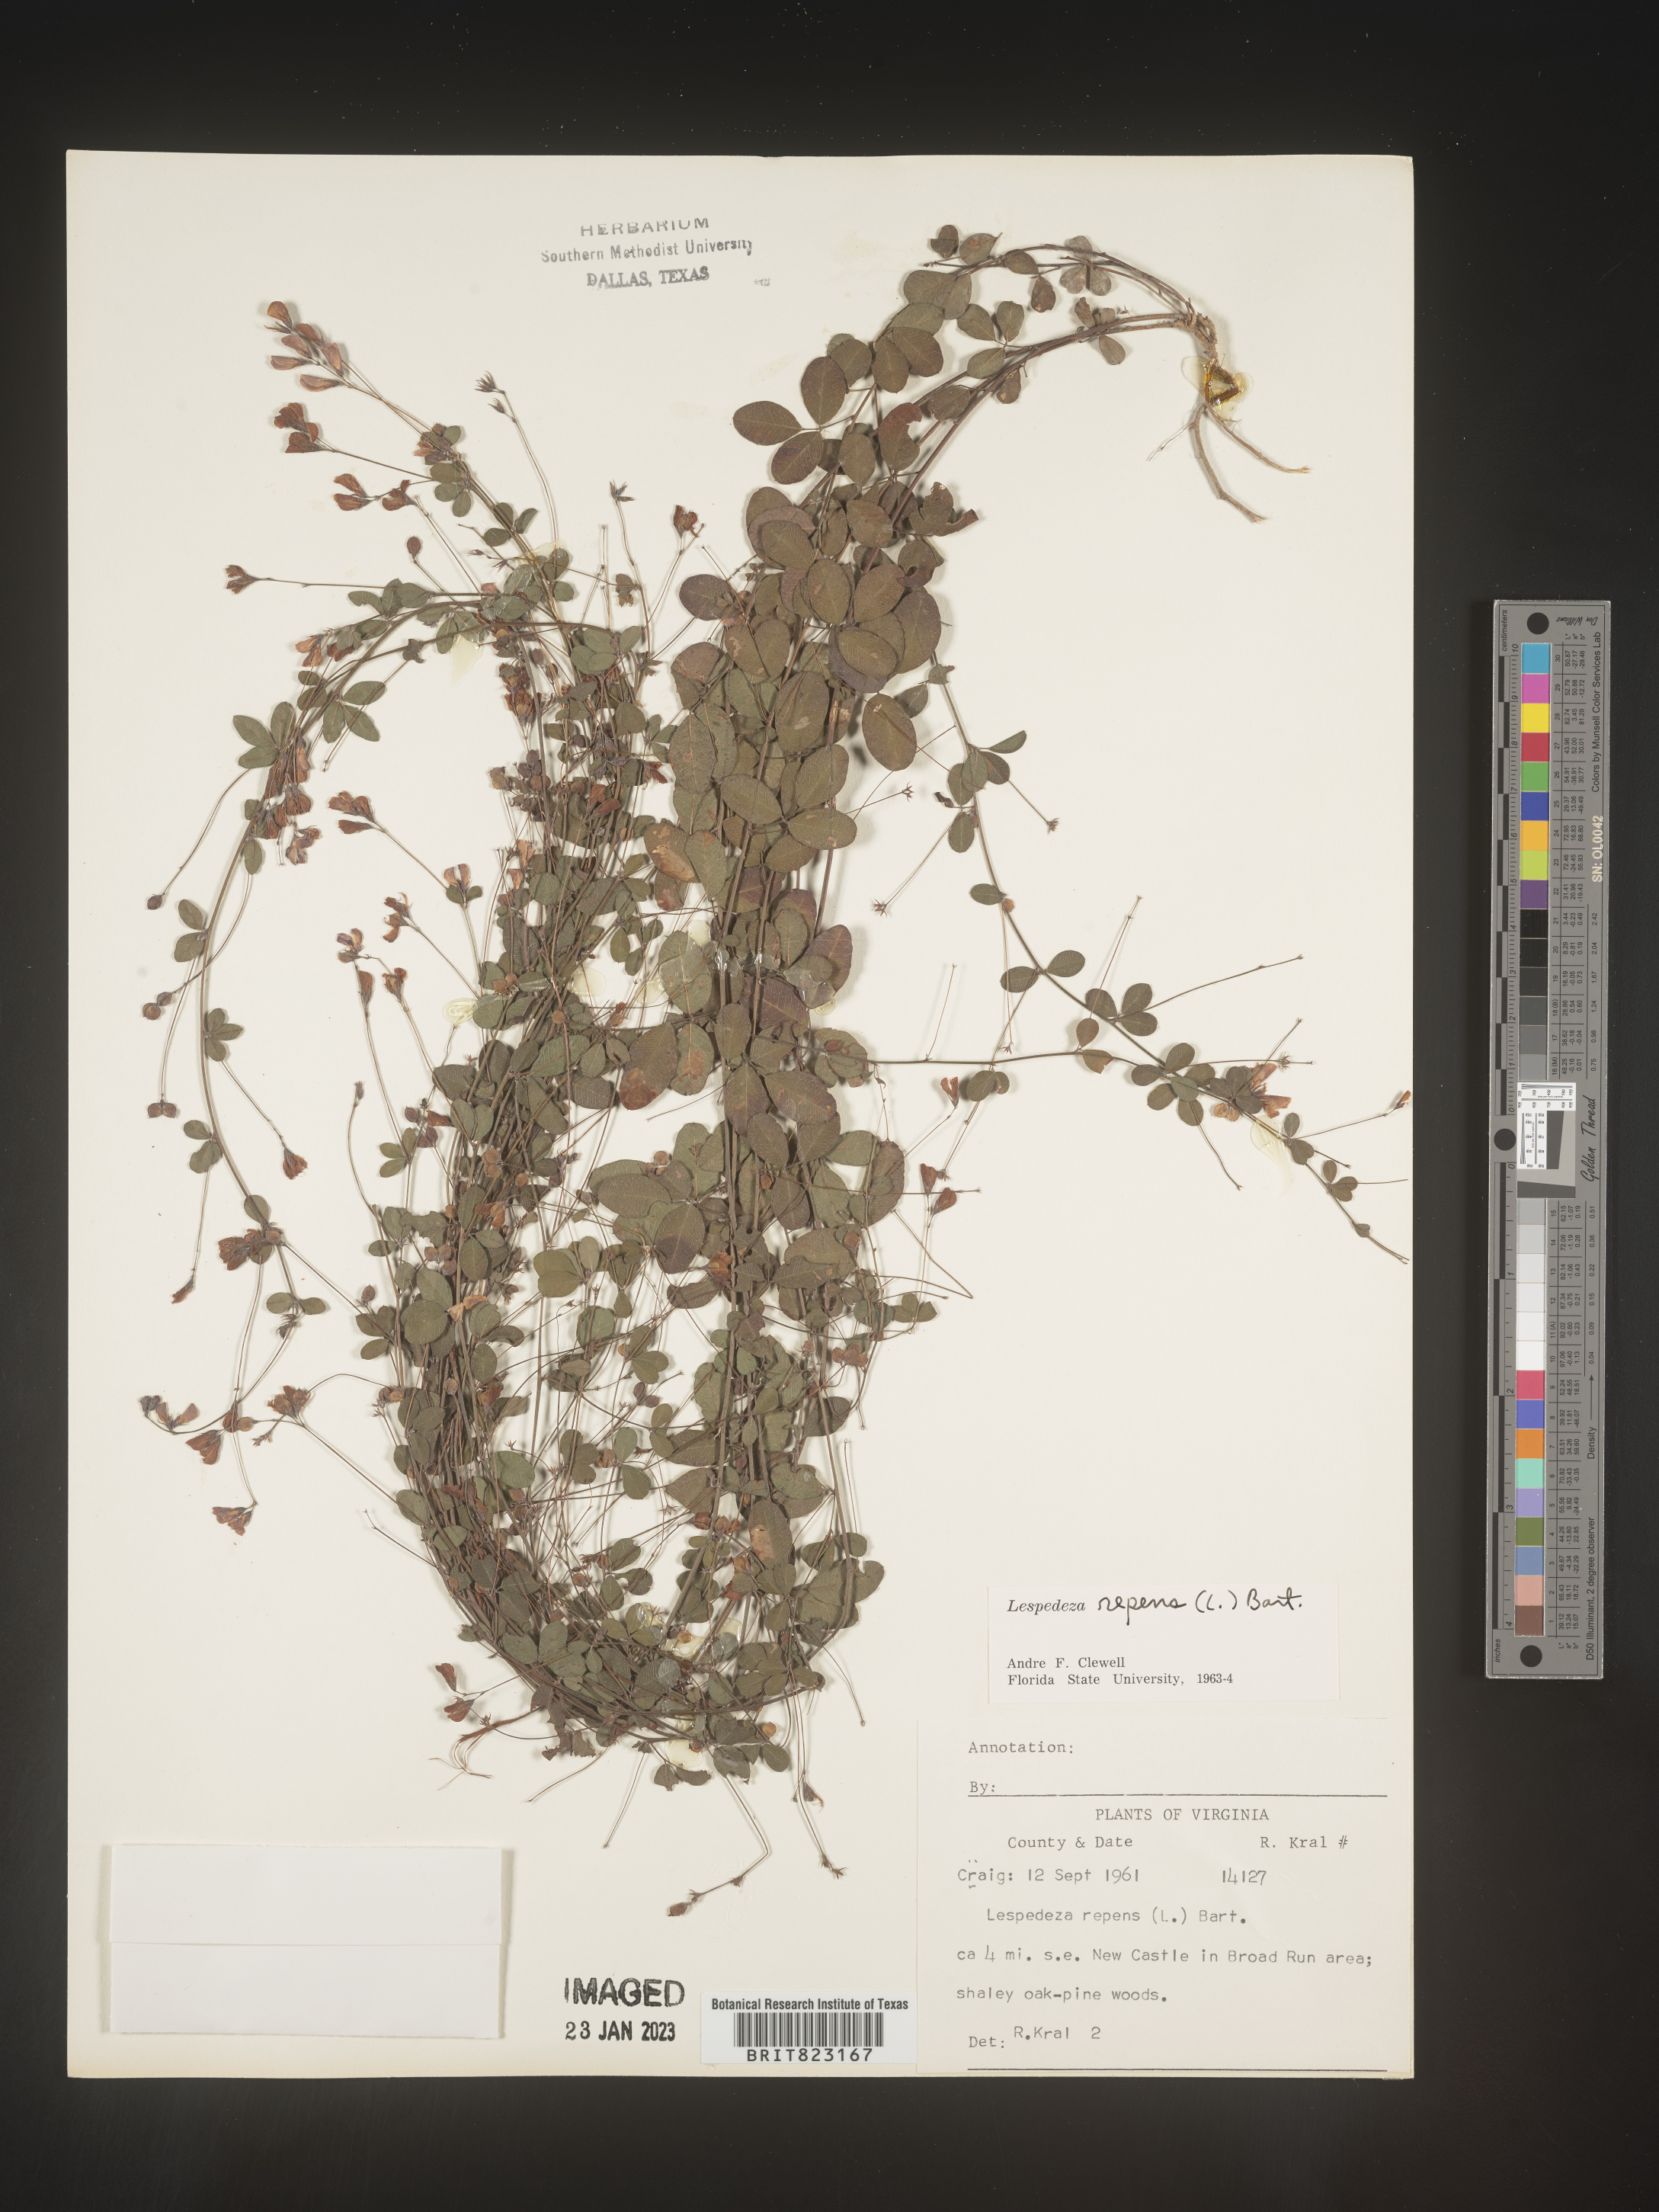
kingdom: Plantae
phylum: Tracheophyta
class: Magnoliopsida
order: Fabales
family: Fabaceae
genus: Lespedeza
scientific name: Lespedeza repens
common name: Creeping bush-clover
